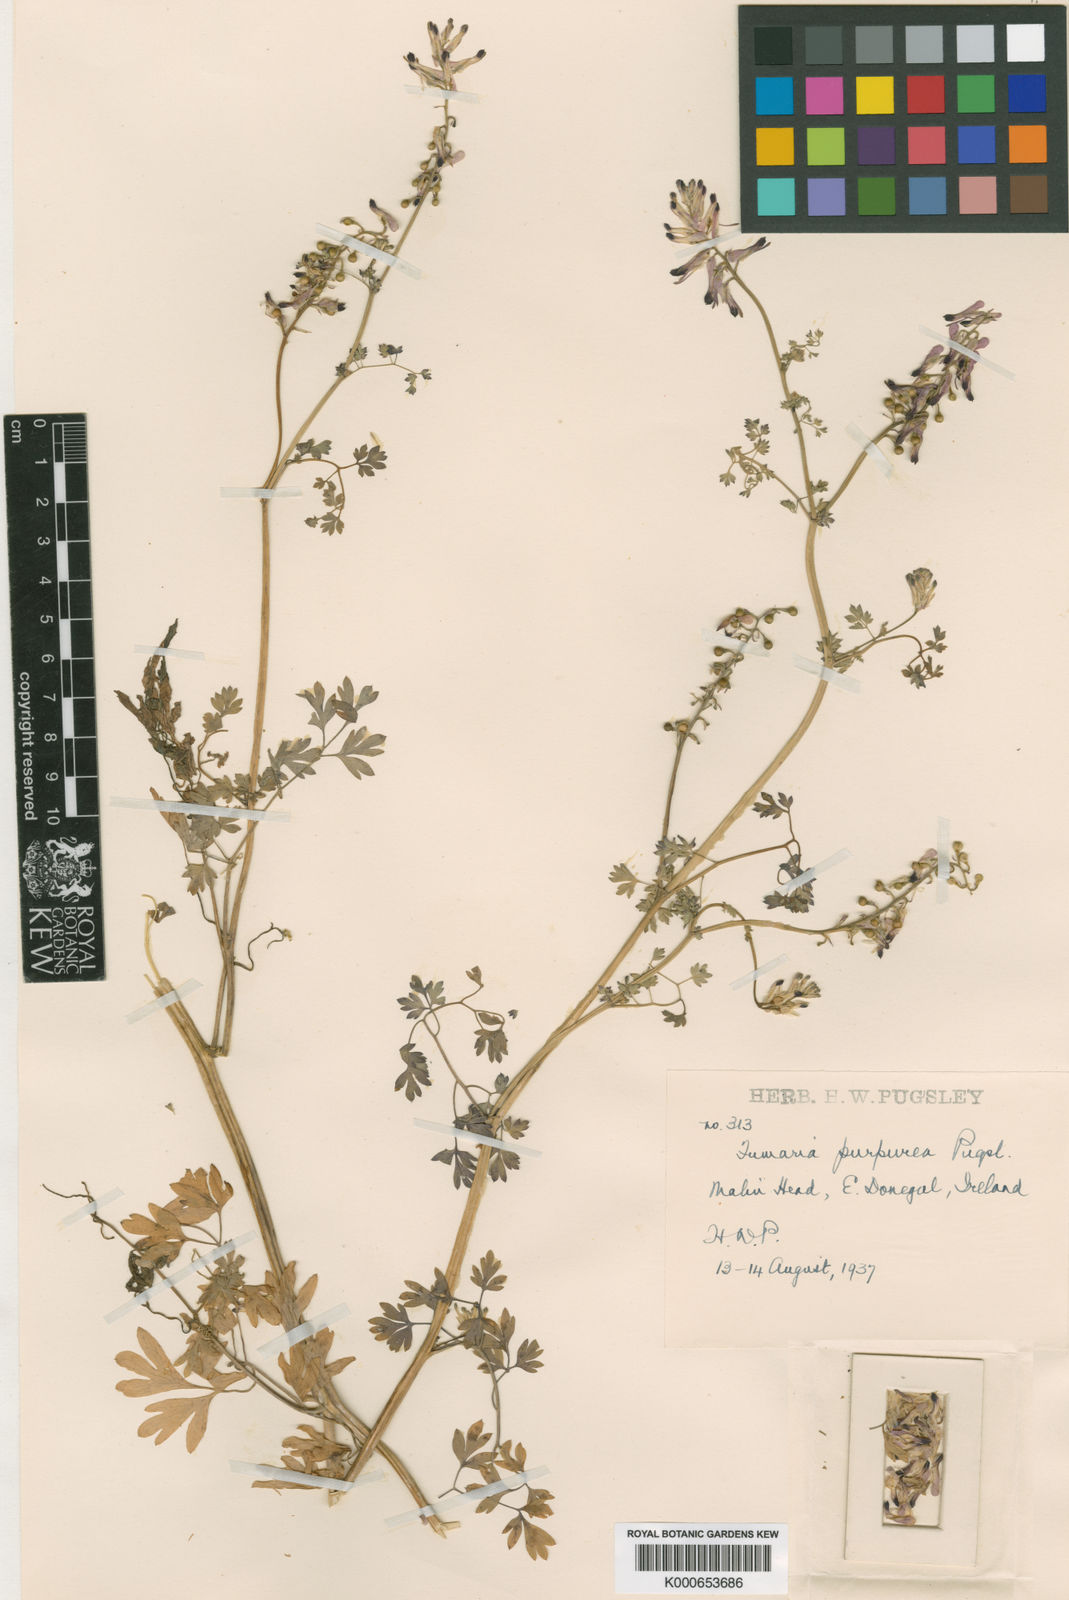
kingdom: Plantae
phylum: Tracheophyta
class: Magnoliopsida
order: Ranunculales
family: Papaveraceae
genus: Fumaria
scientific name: Fumaria purpurea
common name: Purple ramping-fumitory
